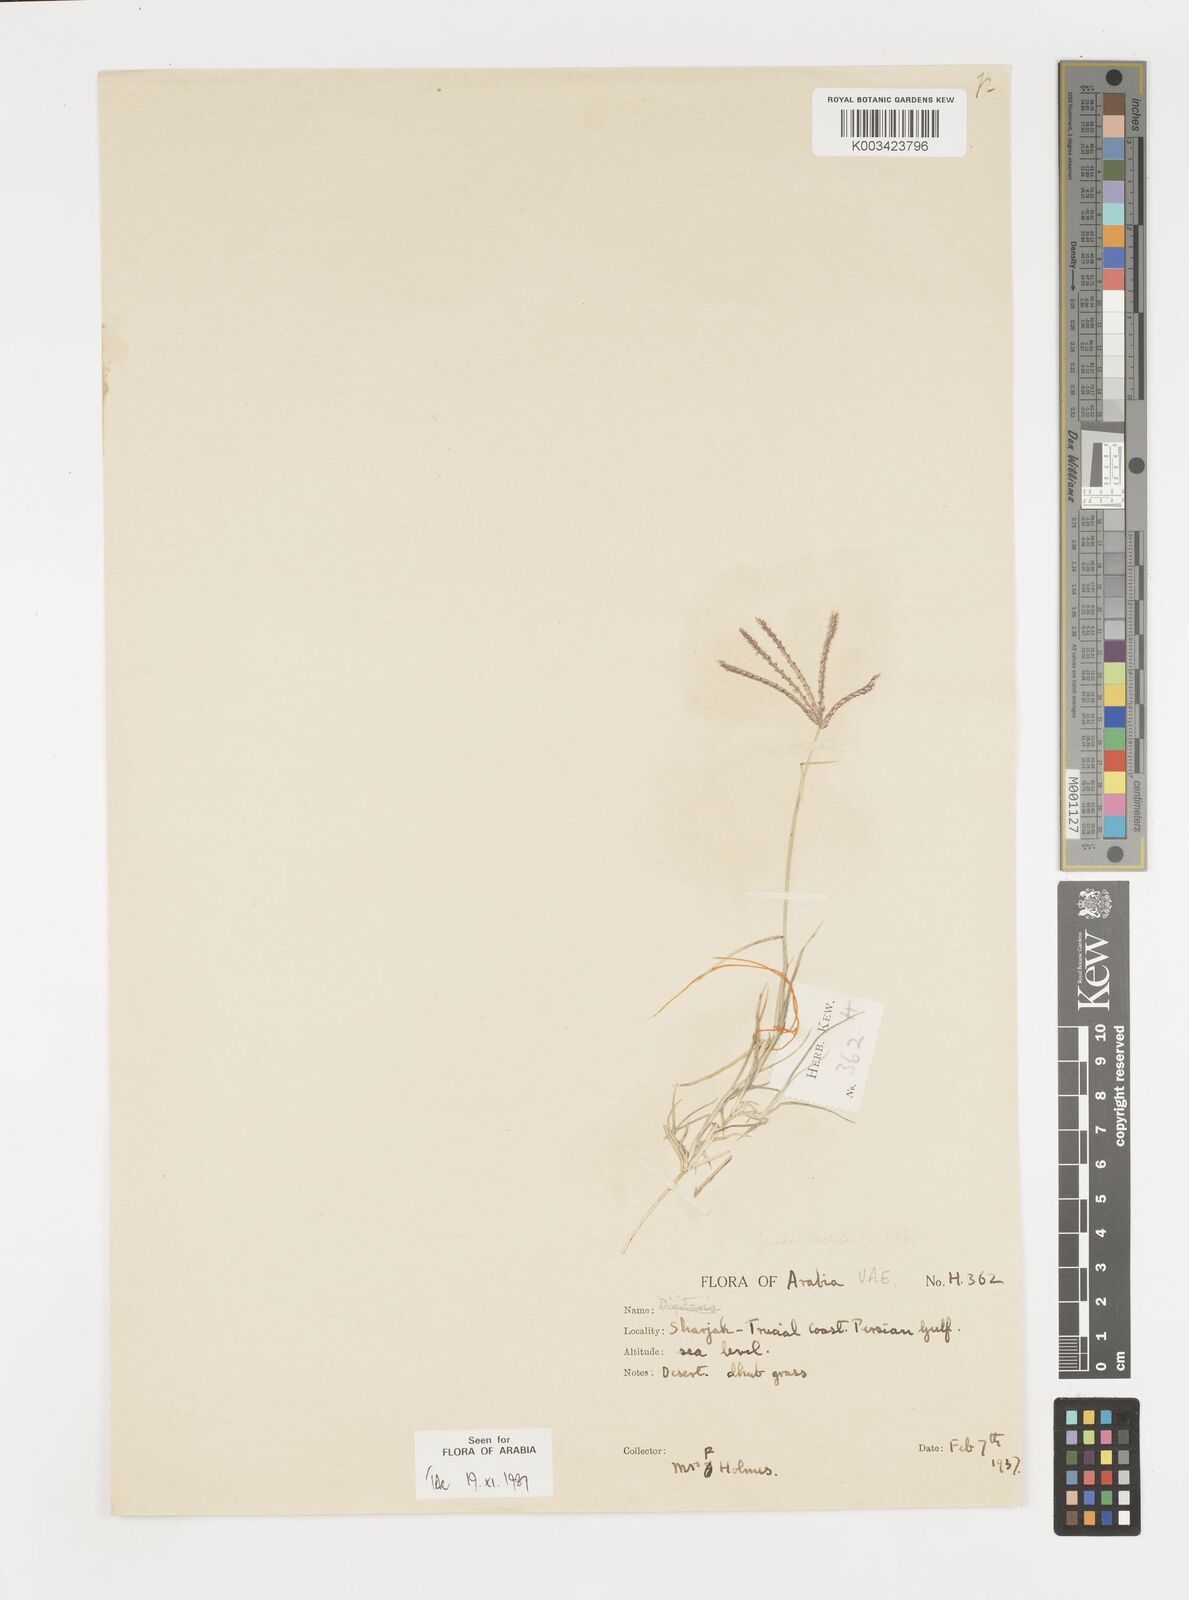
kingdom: Plantae
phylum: Tracheophyta
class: Liliopsida
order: Poales
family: Poaceae
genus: Cynodon
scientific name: Cynodon dactylon
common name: Bermuda grass
